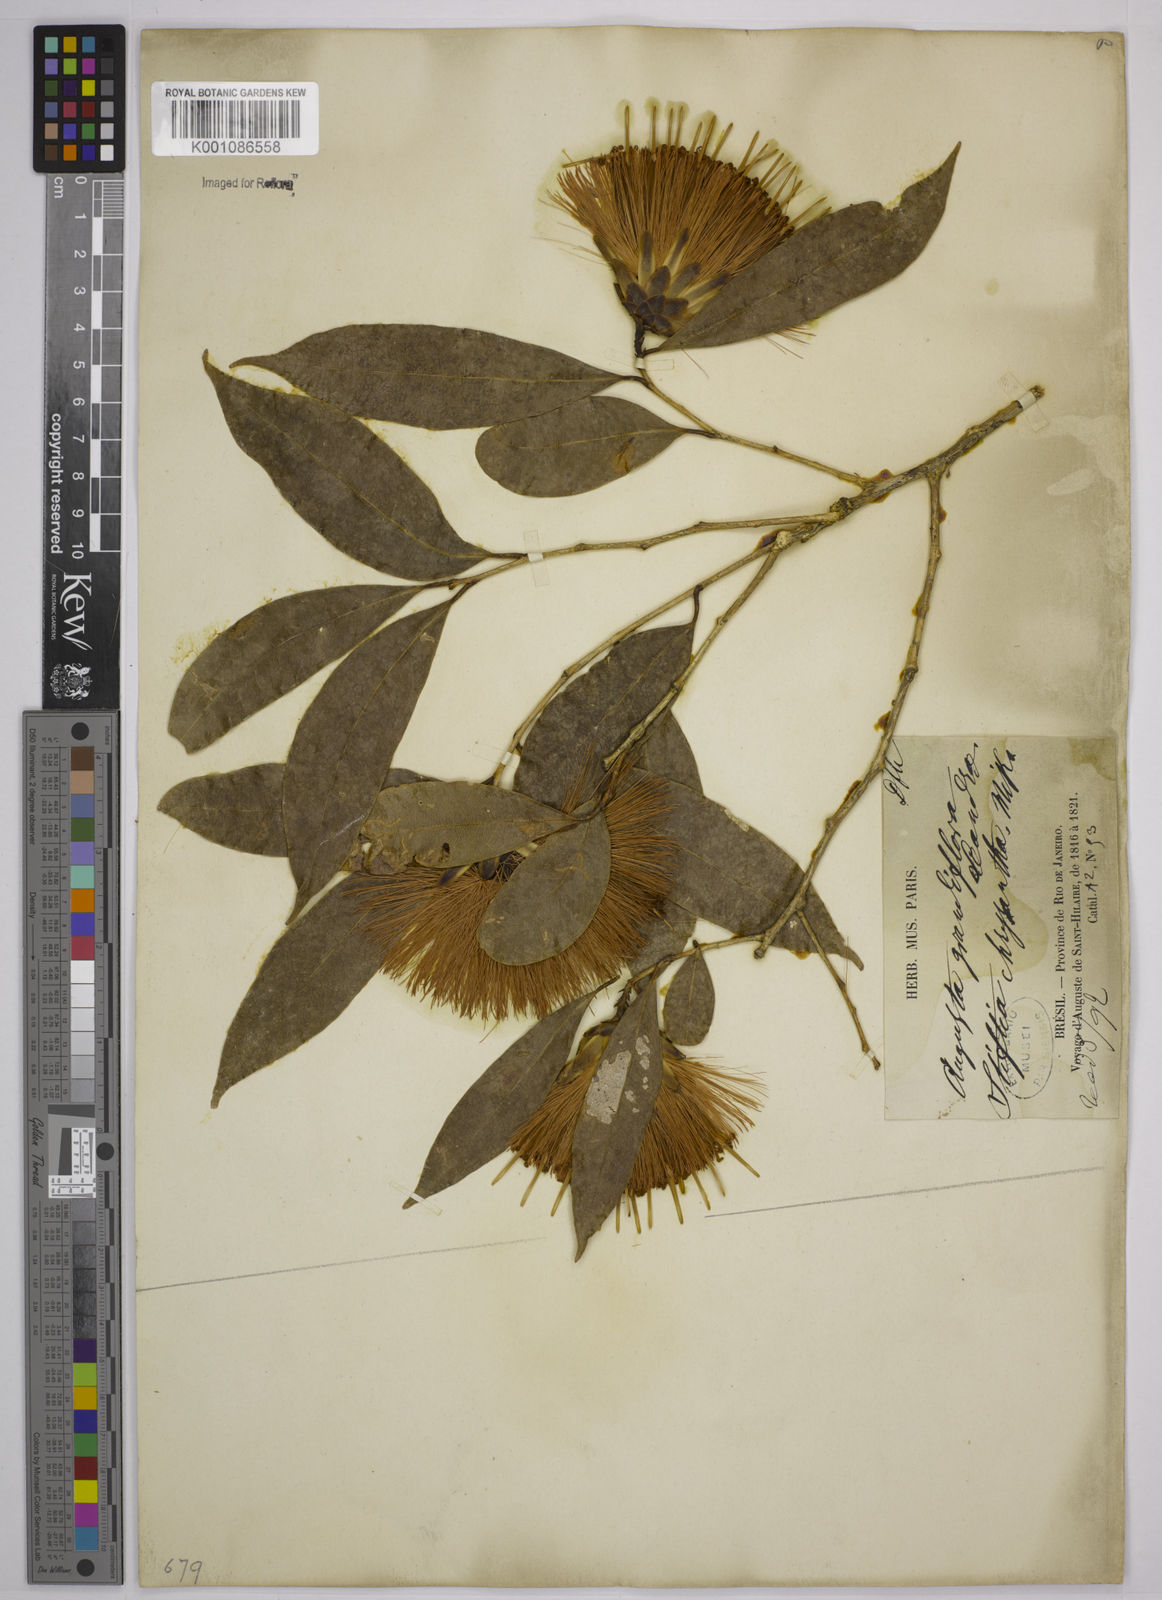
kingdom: Plantae
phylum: Tracheophyta
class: Magnoliopsida
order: Asterales
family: Asteraceae
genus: Stifftia
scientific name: Stifftia chrysantha
